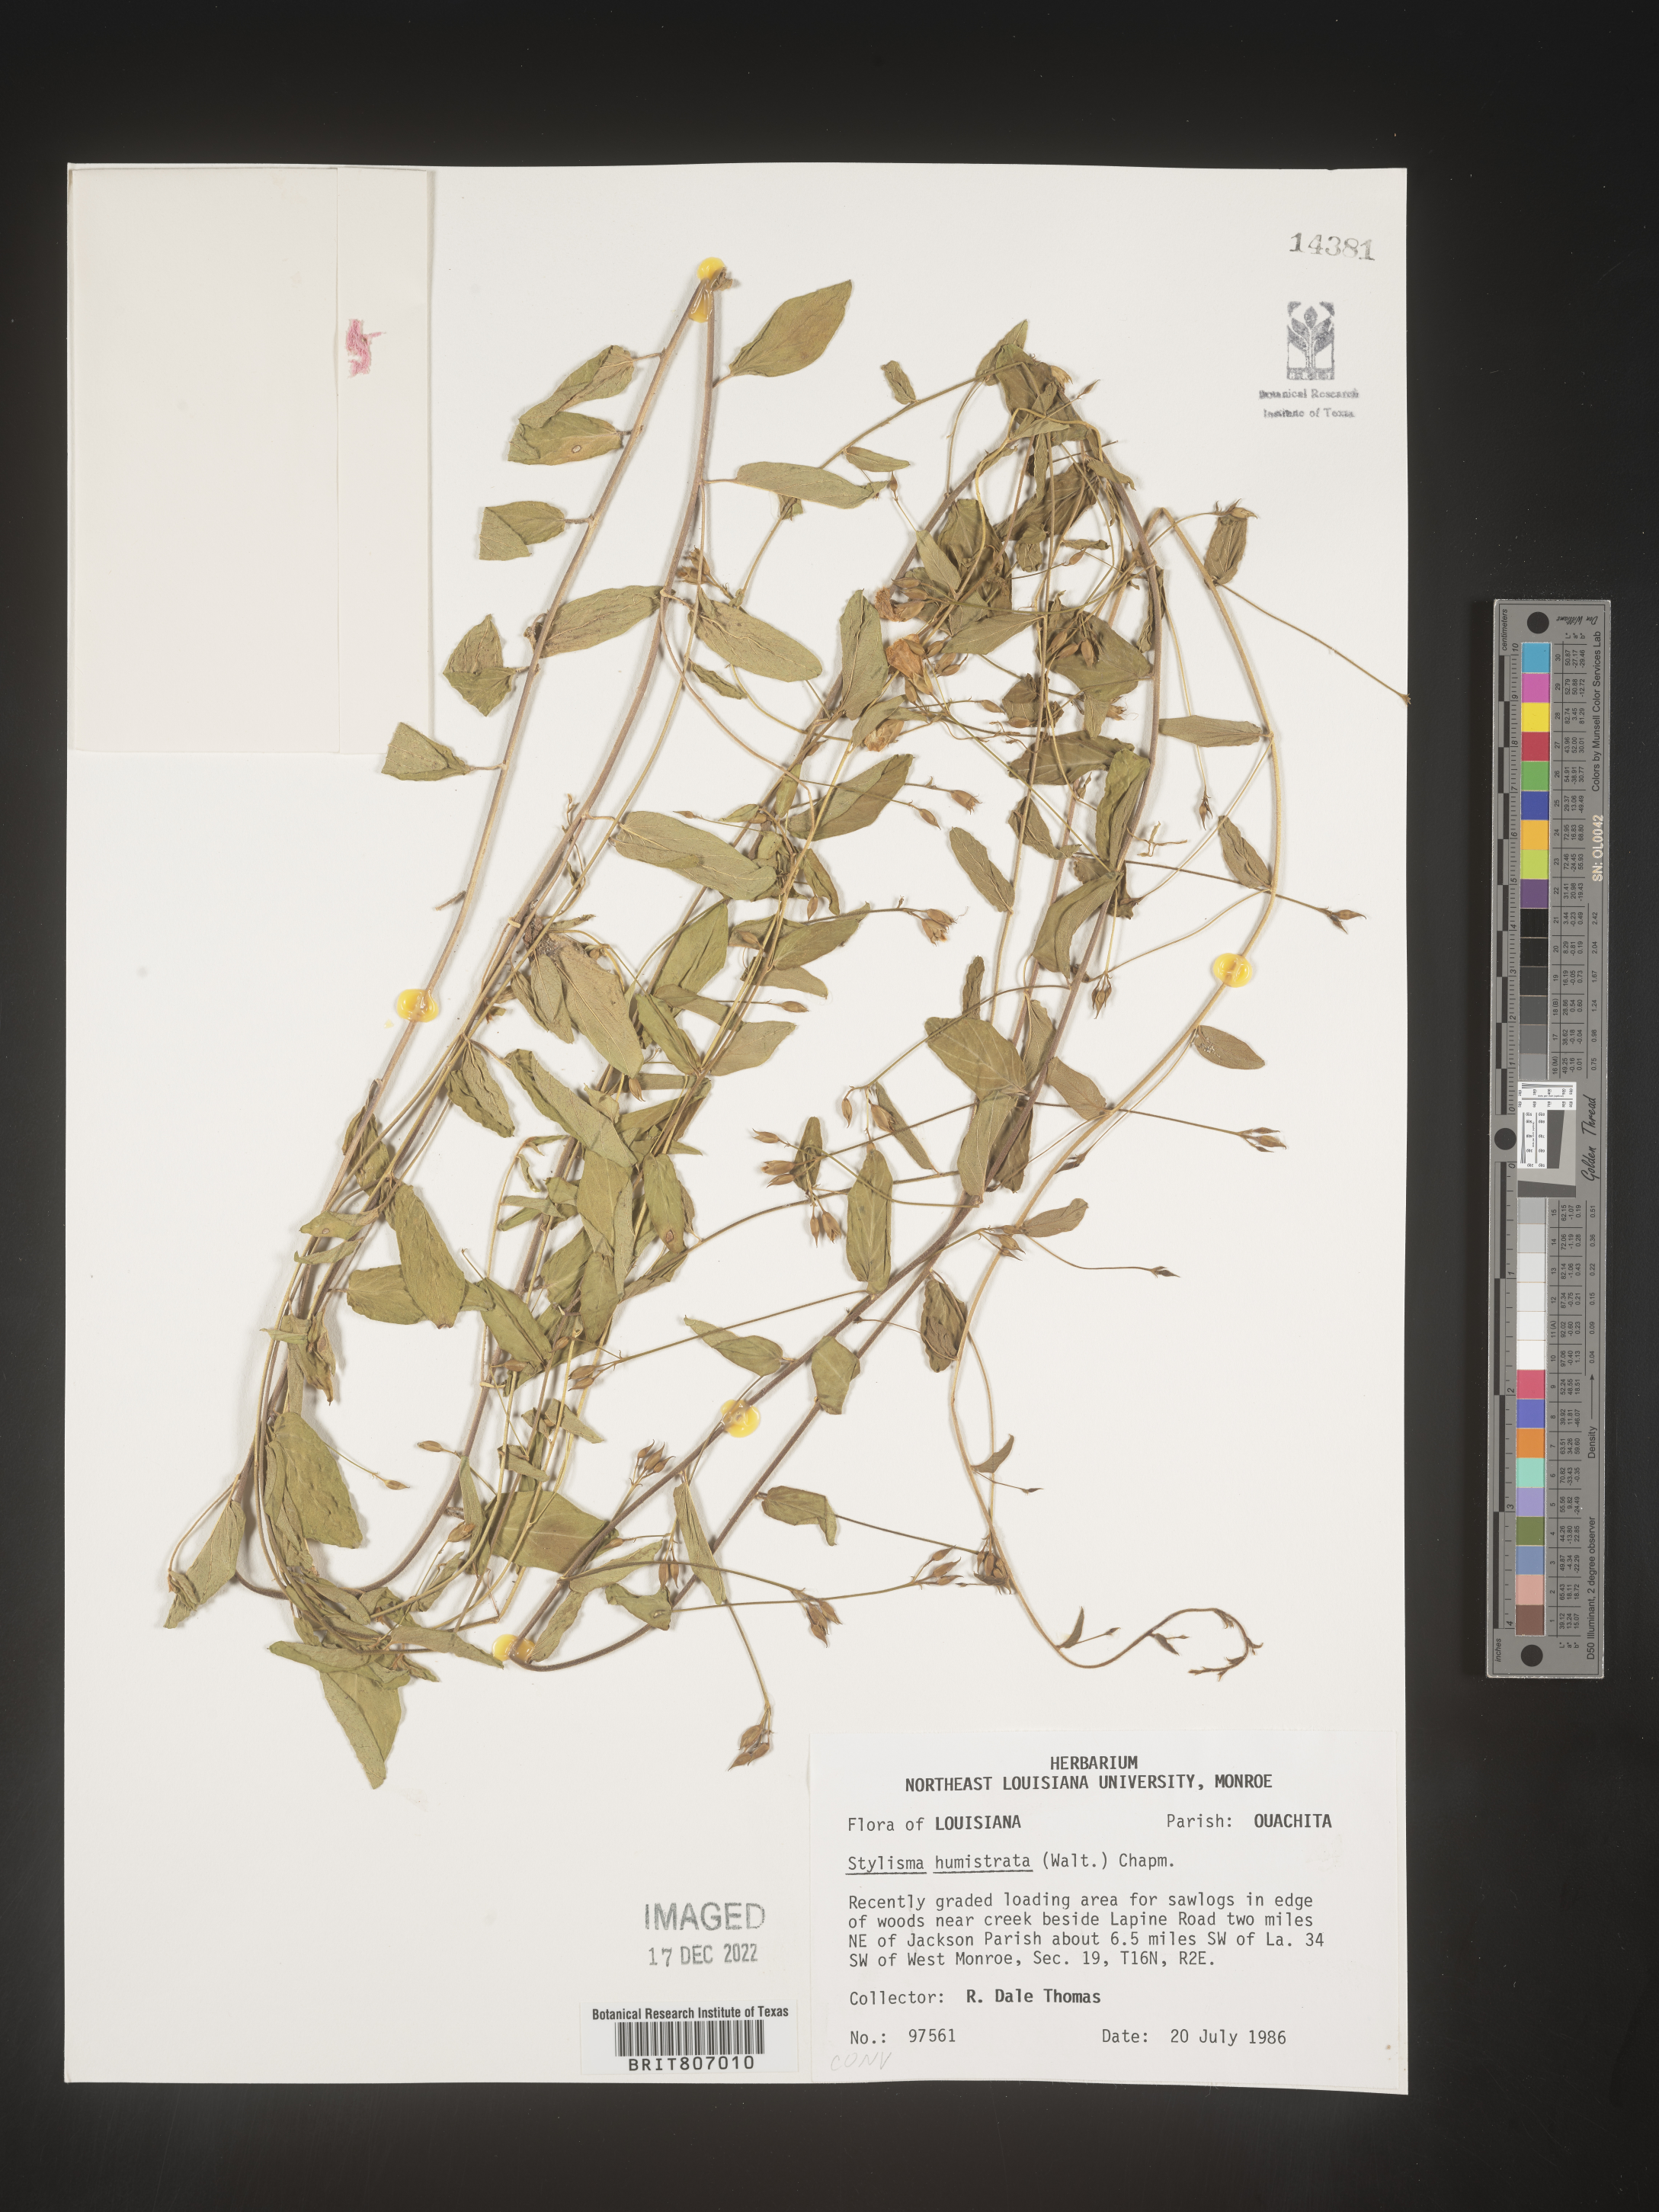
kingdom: Plantae
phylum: Tracheophyta
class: Magnoliopsida
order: Solanales
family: Convolvulaceae
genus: Stylisma
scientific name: Stylisma humistrata
